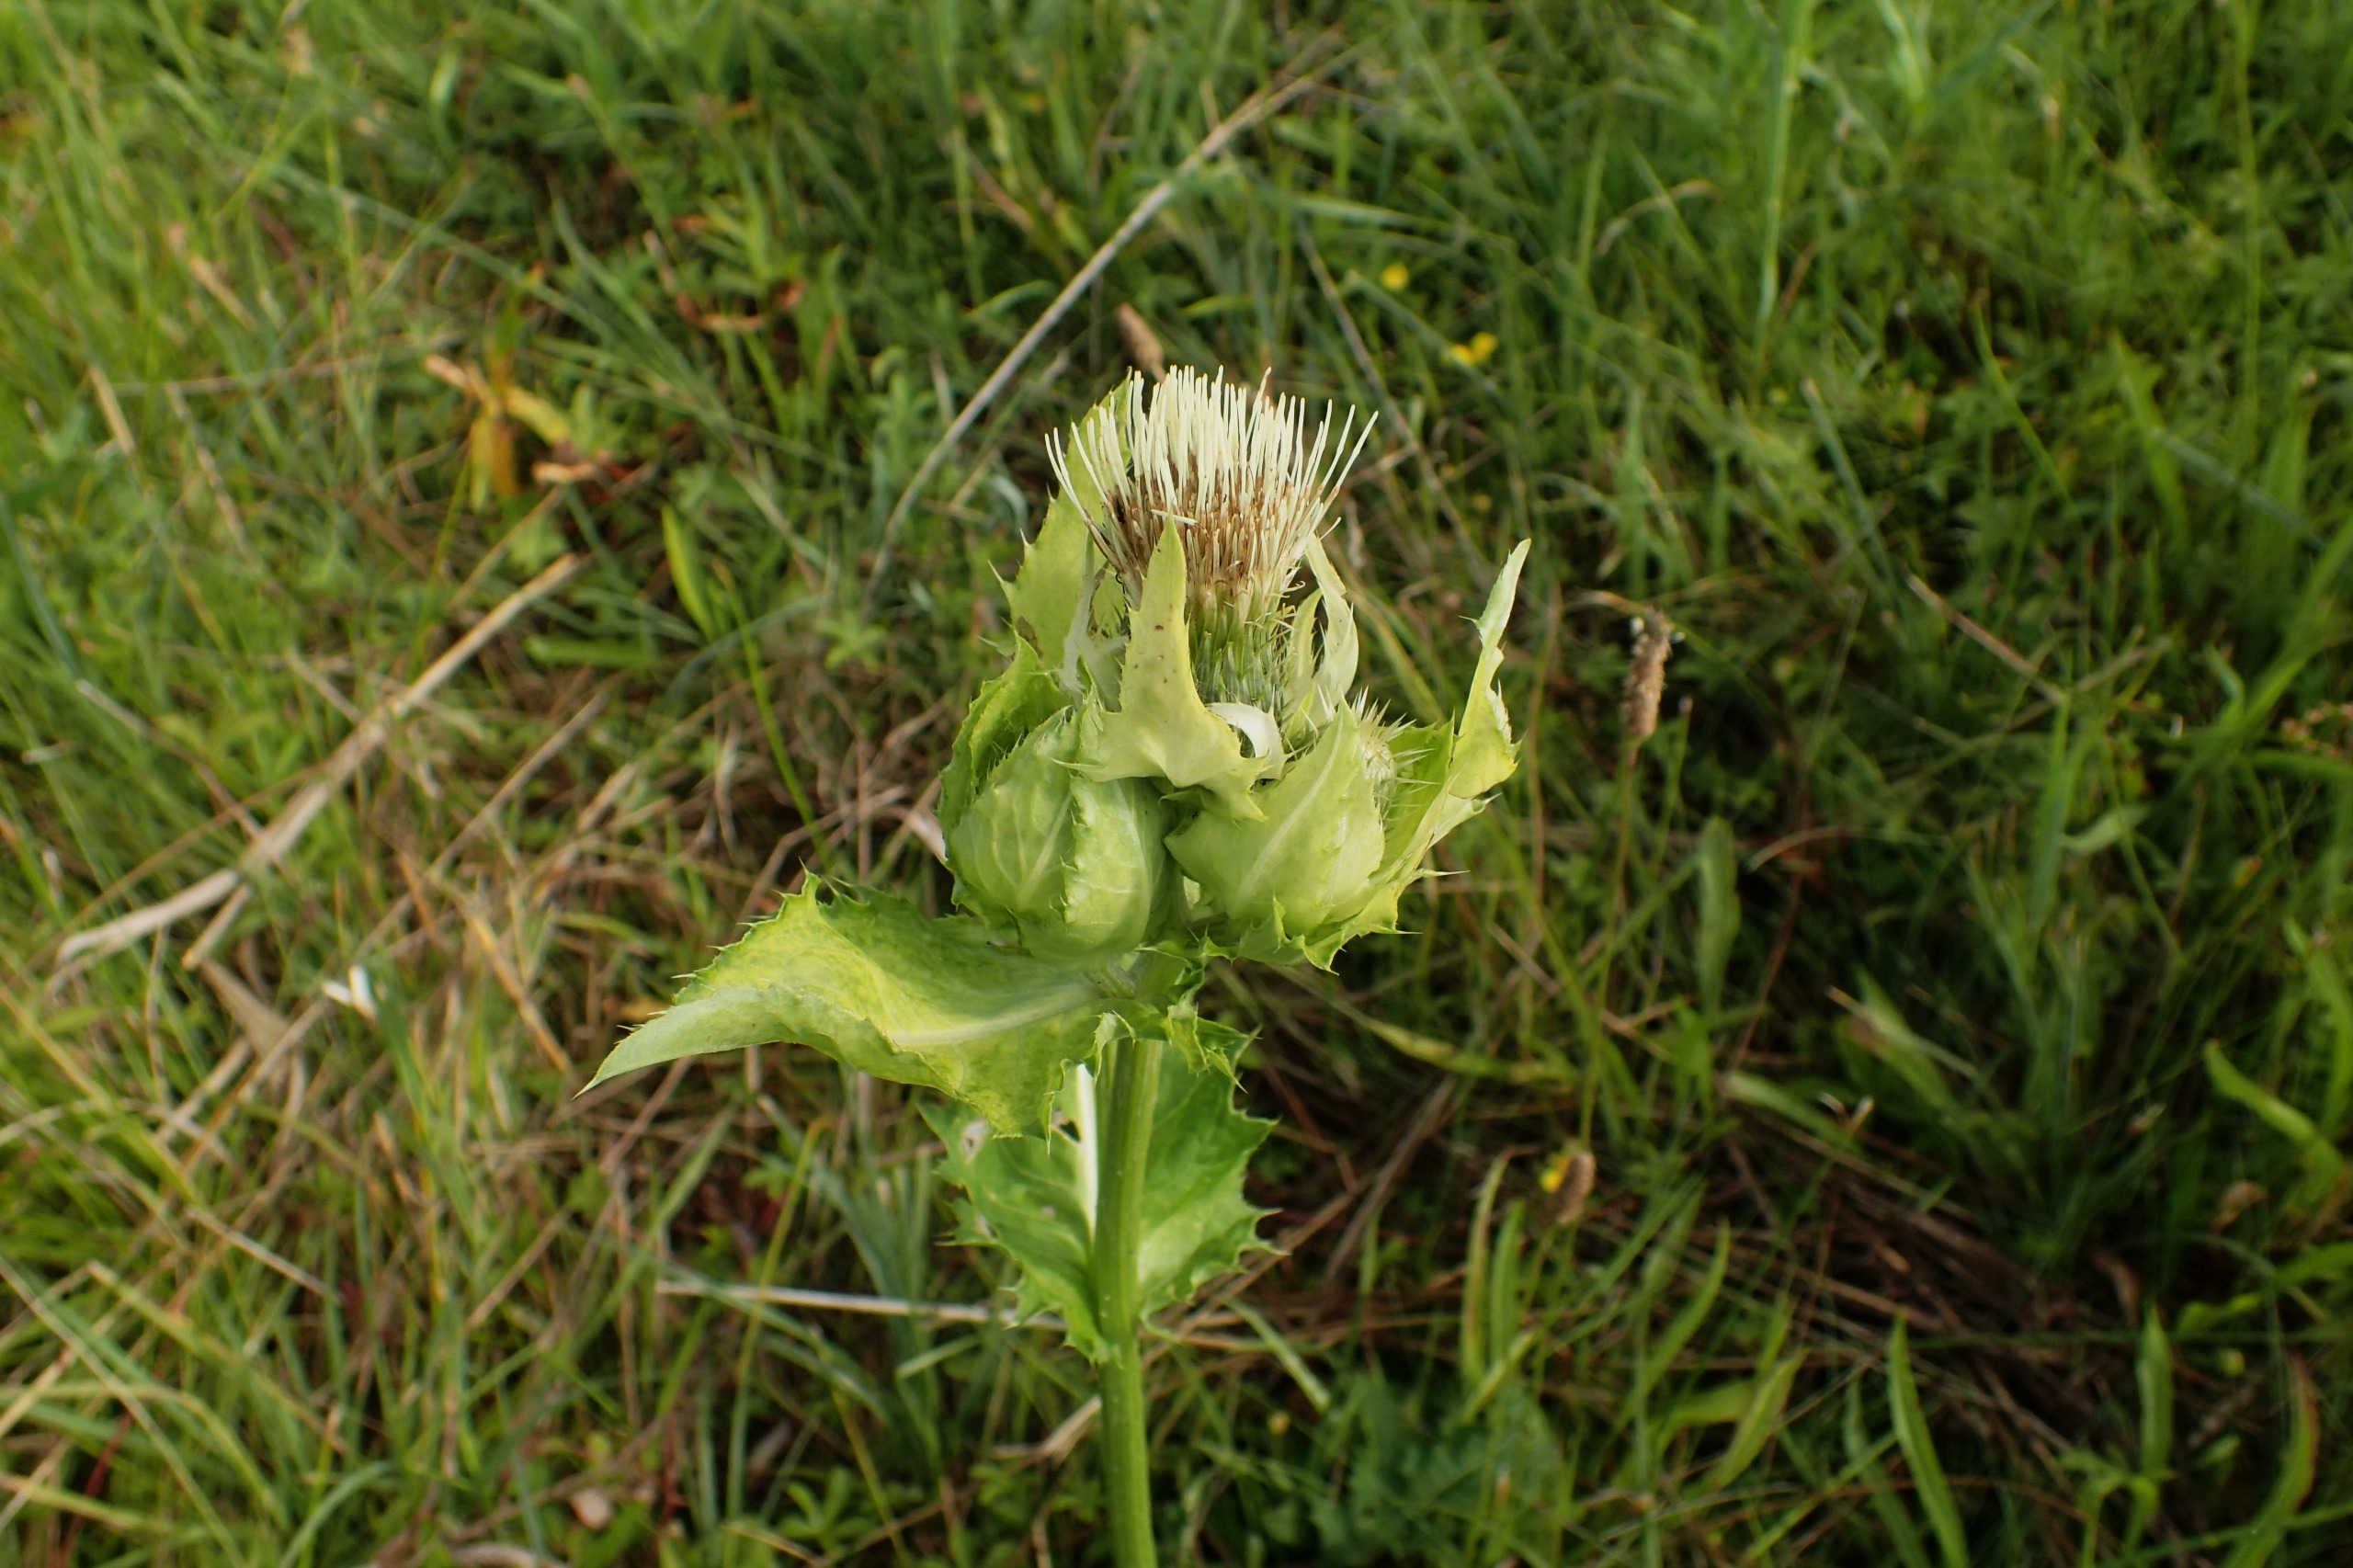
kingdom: Plantae
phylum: Tracheophyta
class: Magnoliopsida
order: Asterales
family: Asteraceae
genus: Cirsium
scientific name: Cirsium oleraceum
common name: Kål-tidsel
